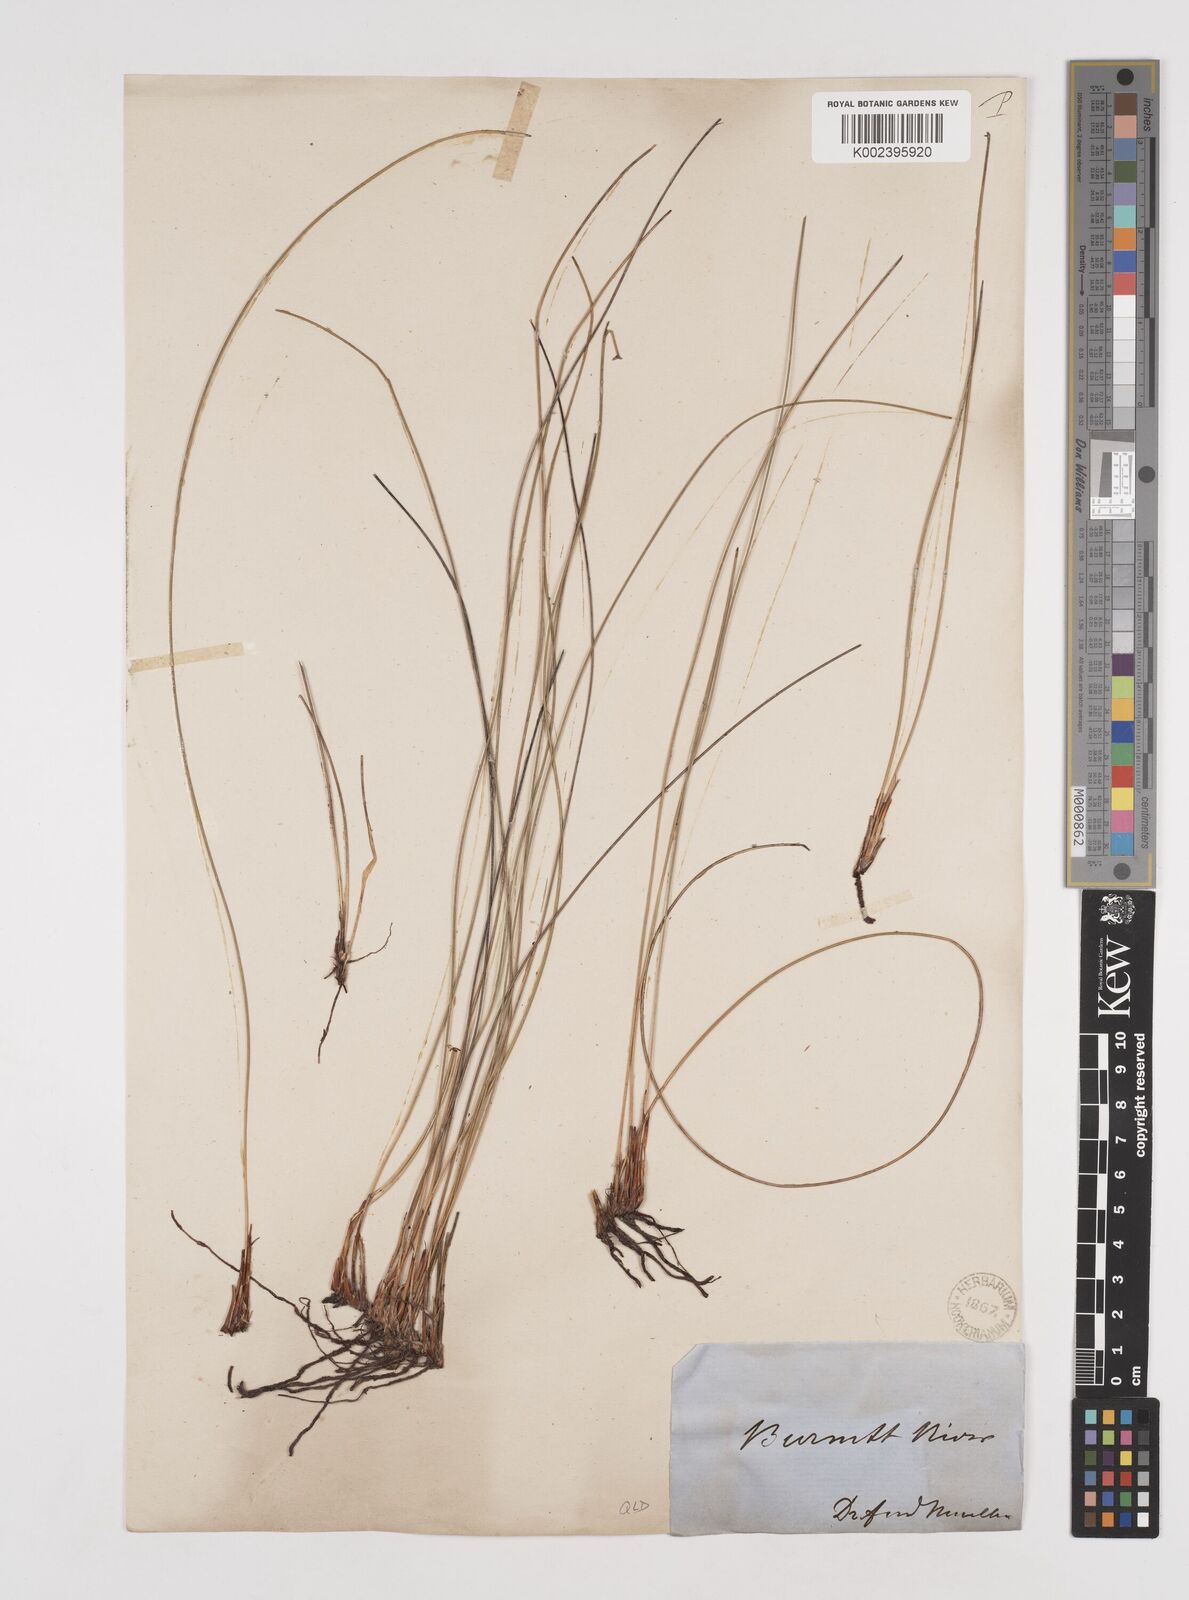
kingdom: Plantae
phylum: Tracheophyta
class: Liliopsida
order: Poales
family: Cyperaceae
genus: Tetraria
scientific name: Tetraria capillaris
